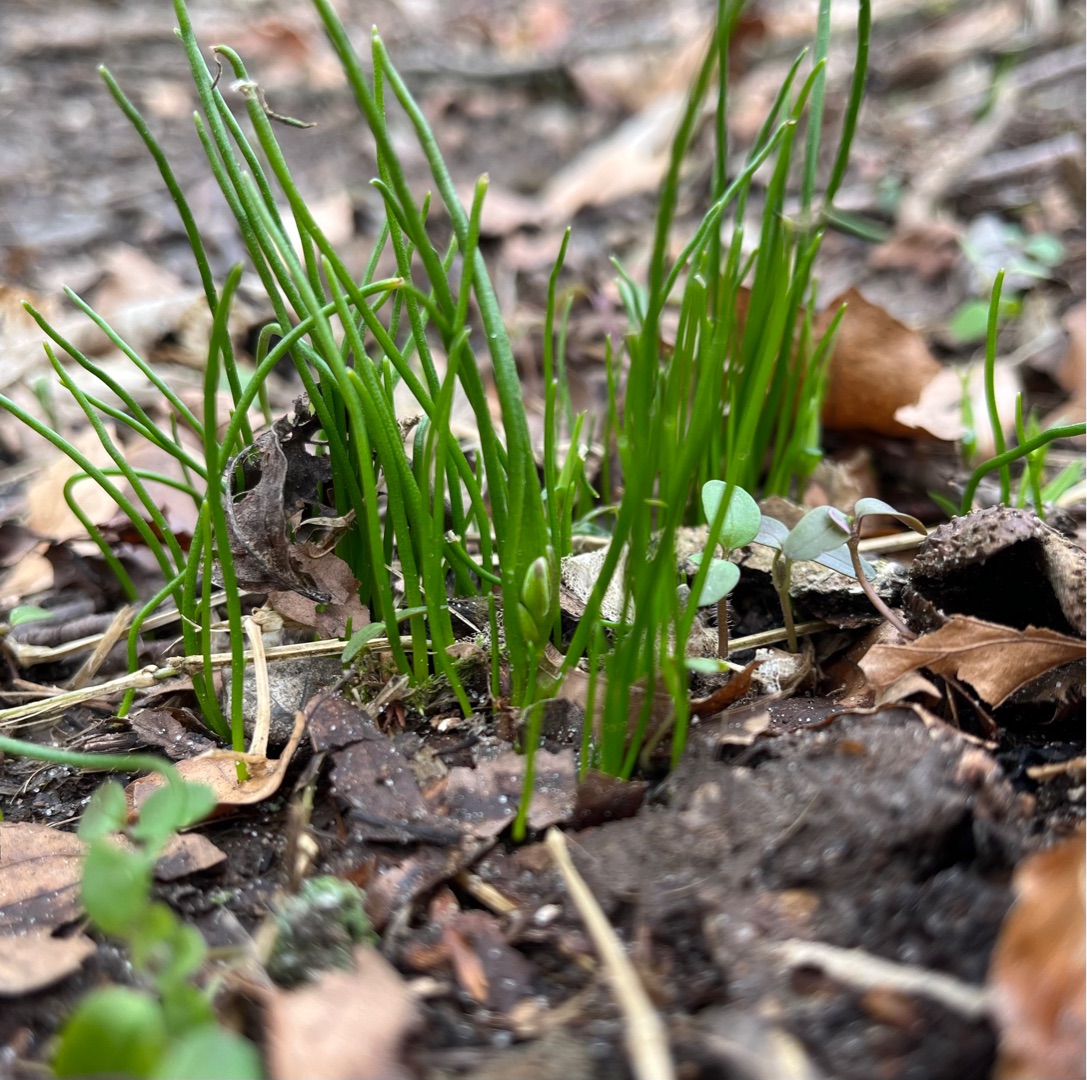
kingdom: Plantae
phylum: Tracheophyta
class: Liliopsida
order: Liliales
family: Liliaceae
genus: Gagea
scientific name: Gagea spathacea
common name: Hylster-guldstjerne
